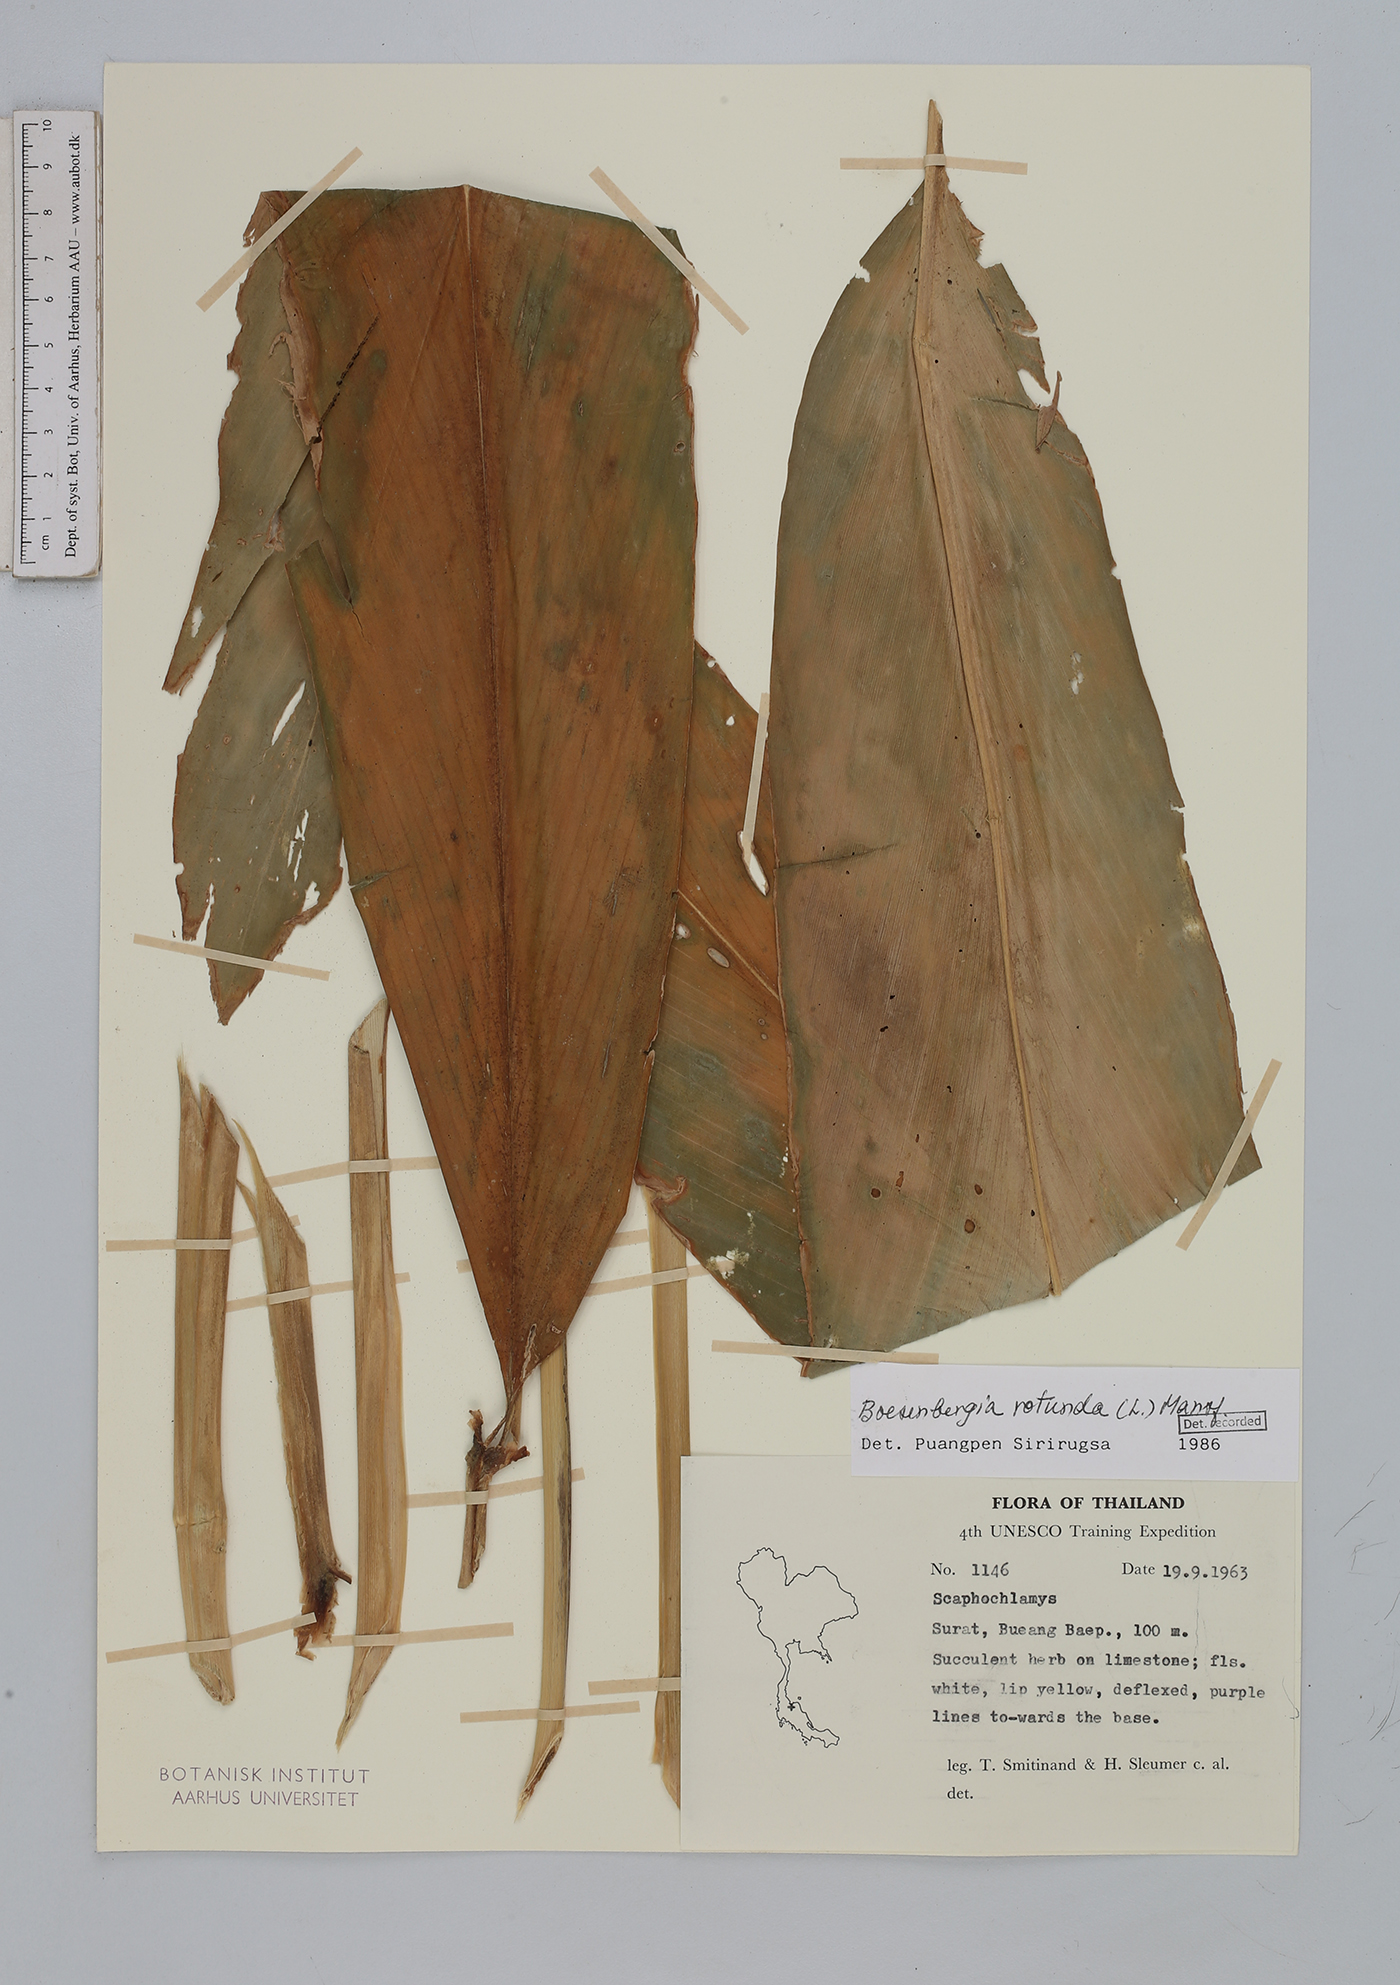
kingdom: Plantae
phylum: Tracheophyta
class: Liliopsida
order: Zingiberales
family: Zingiberaceae
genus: Boesenbergia
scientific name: Boesenbergia rotunda
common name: Chinese ginger
